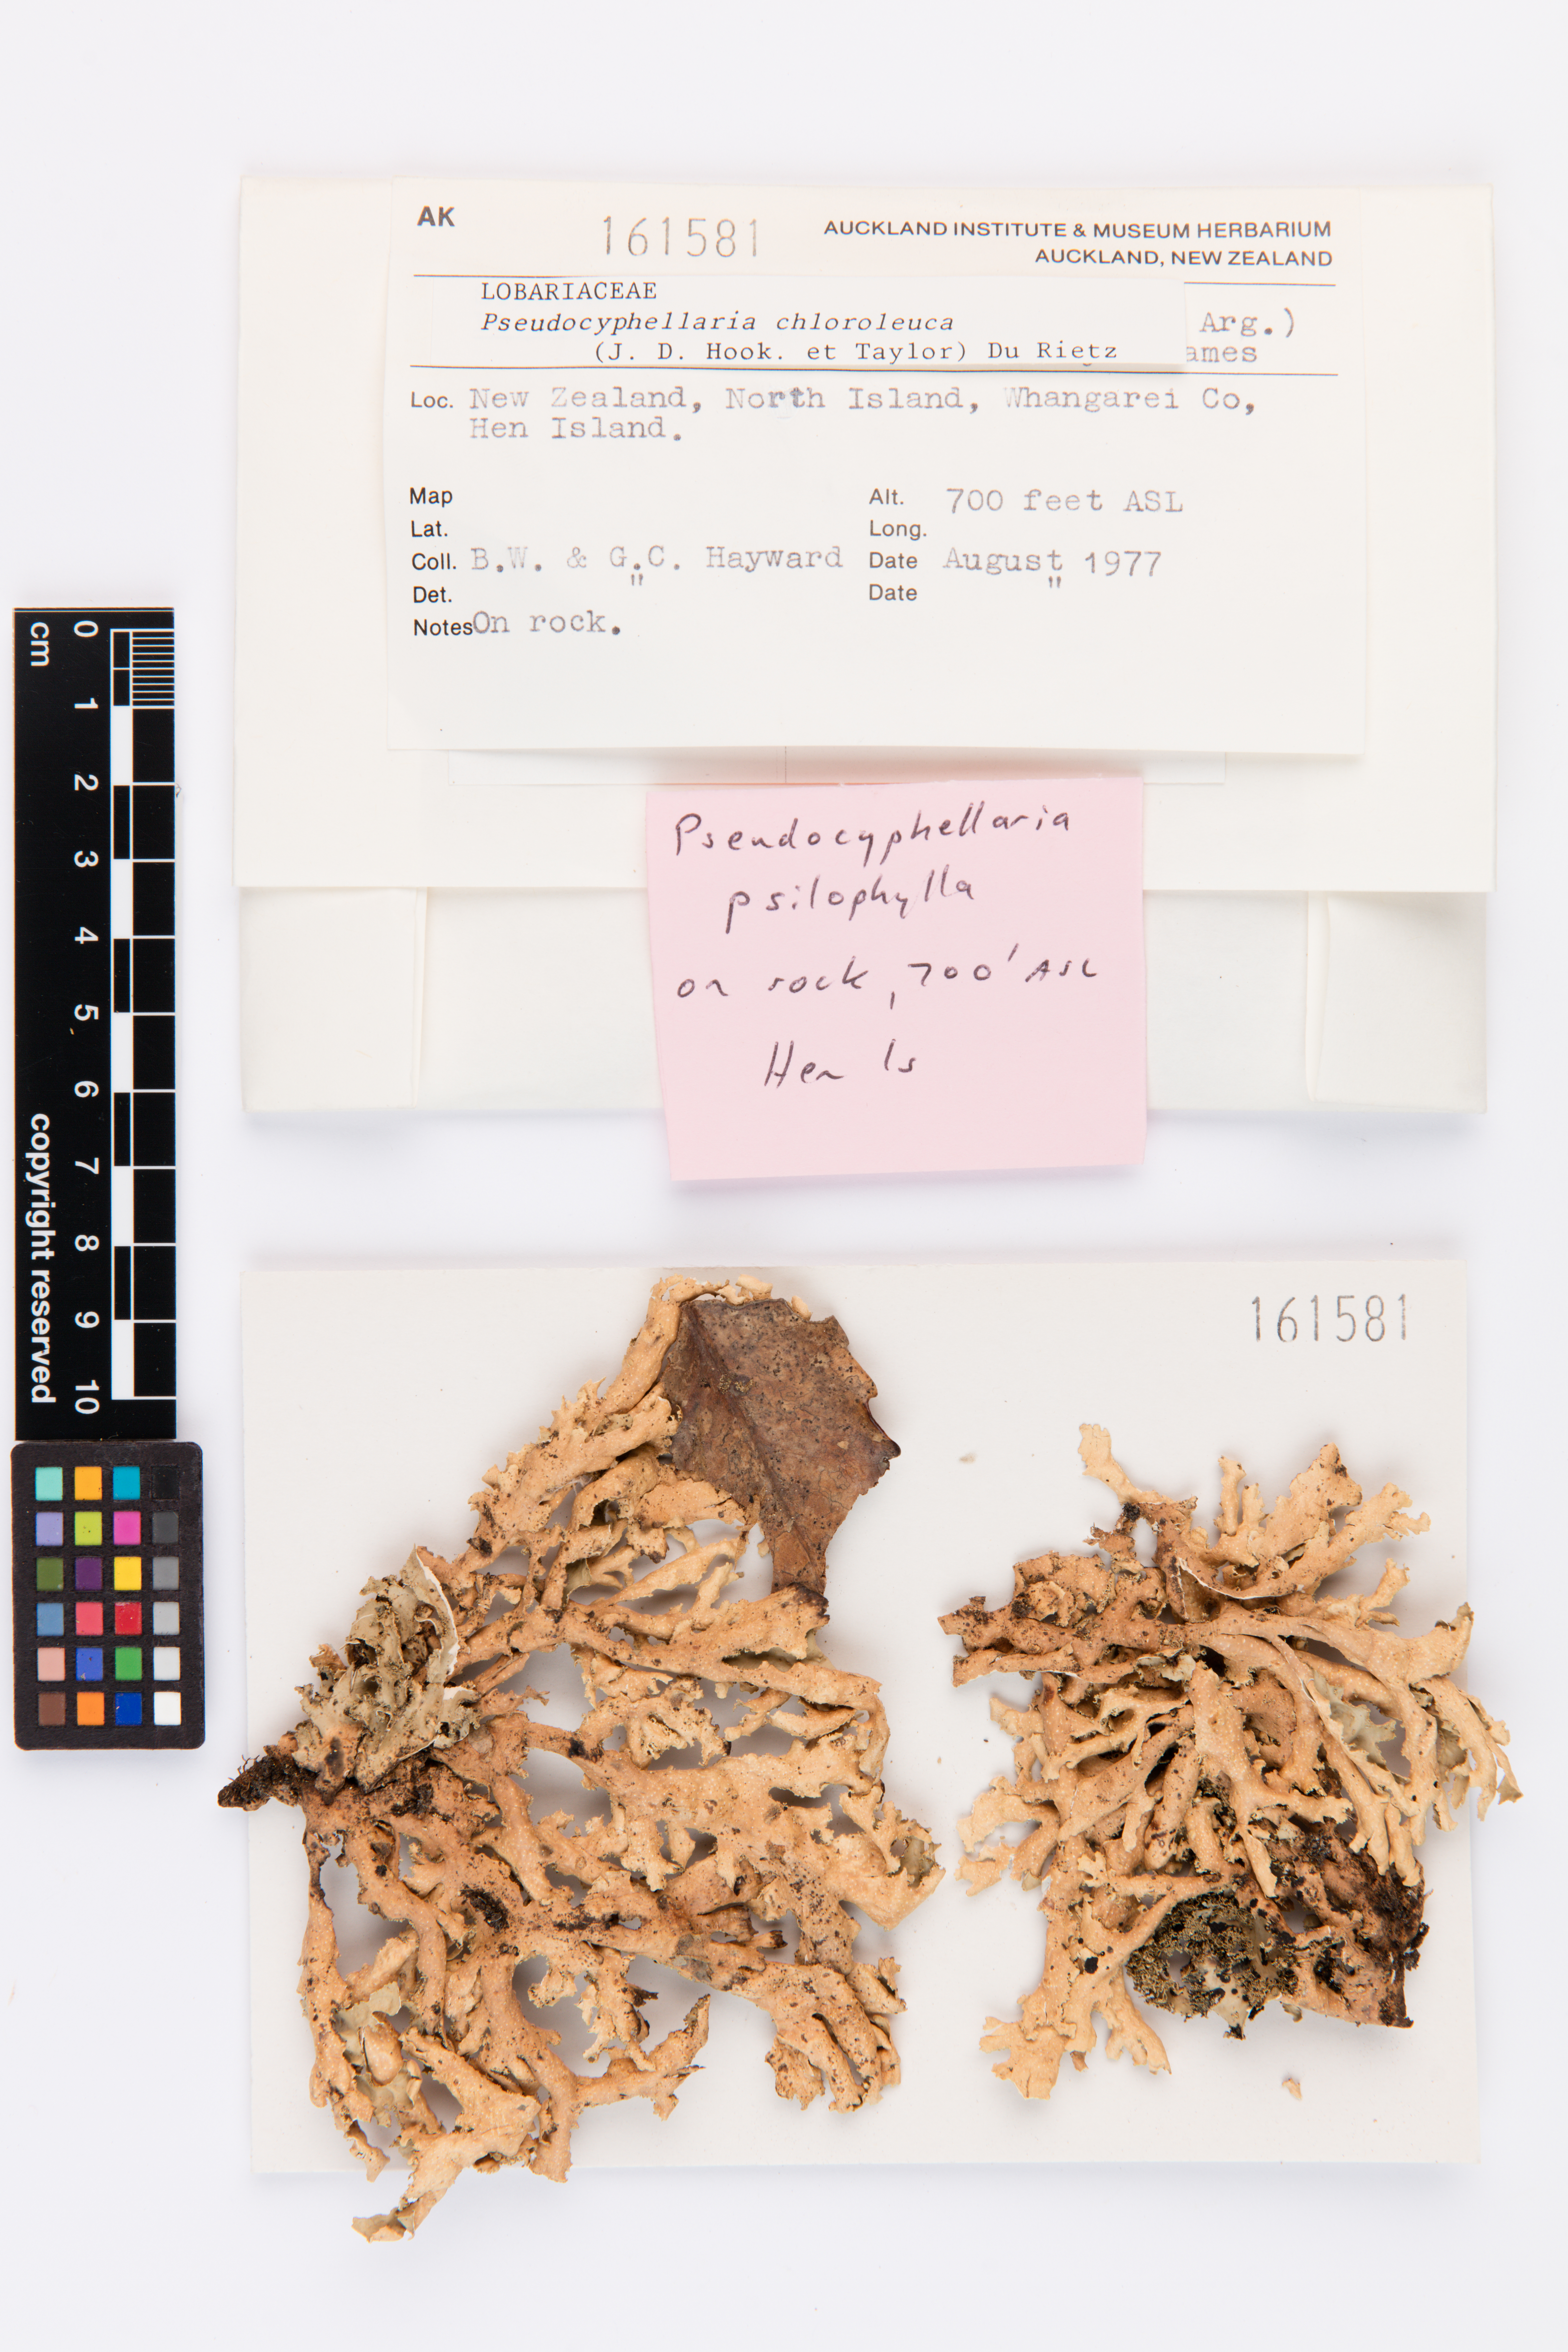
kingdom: Fungi
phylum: Ascomycota
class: Lecanoromycetes
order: Peltigerales
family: Lobariaceae
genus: Pseudocyphellaria
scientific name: Pseudocyphellaria chloroleuca
